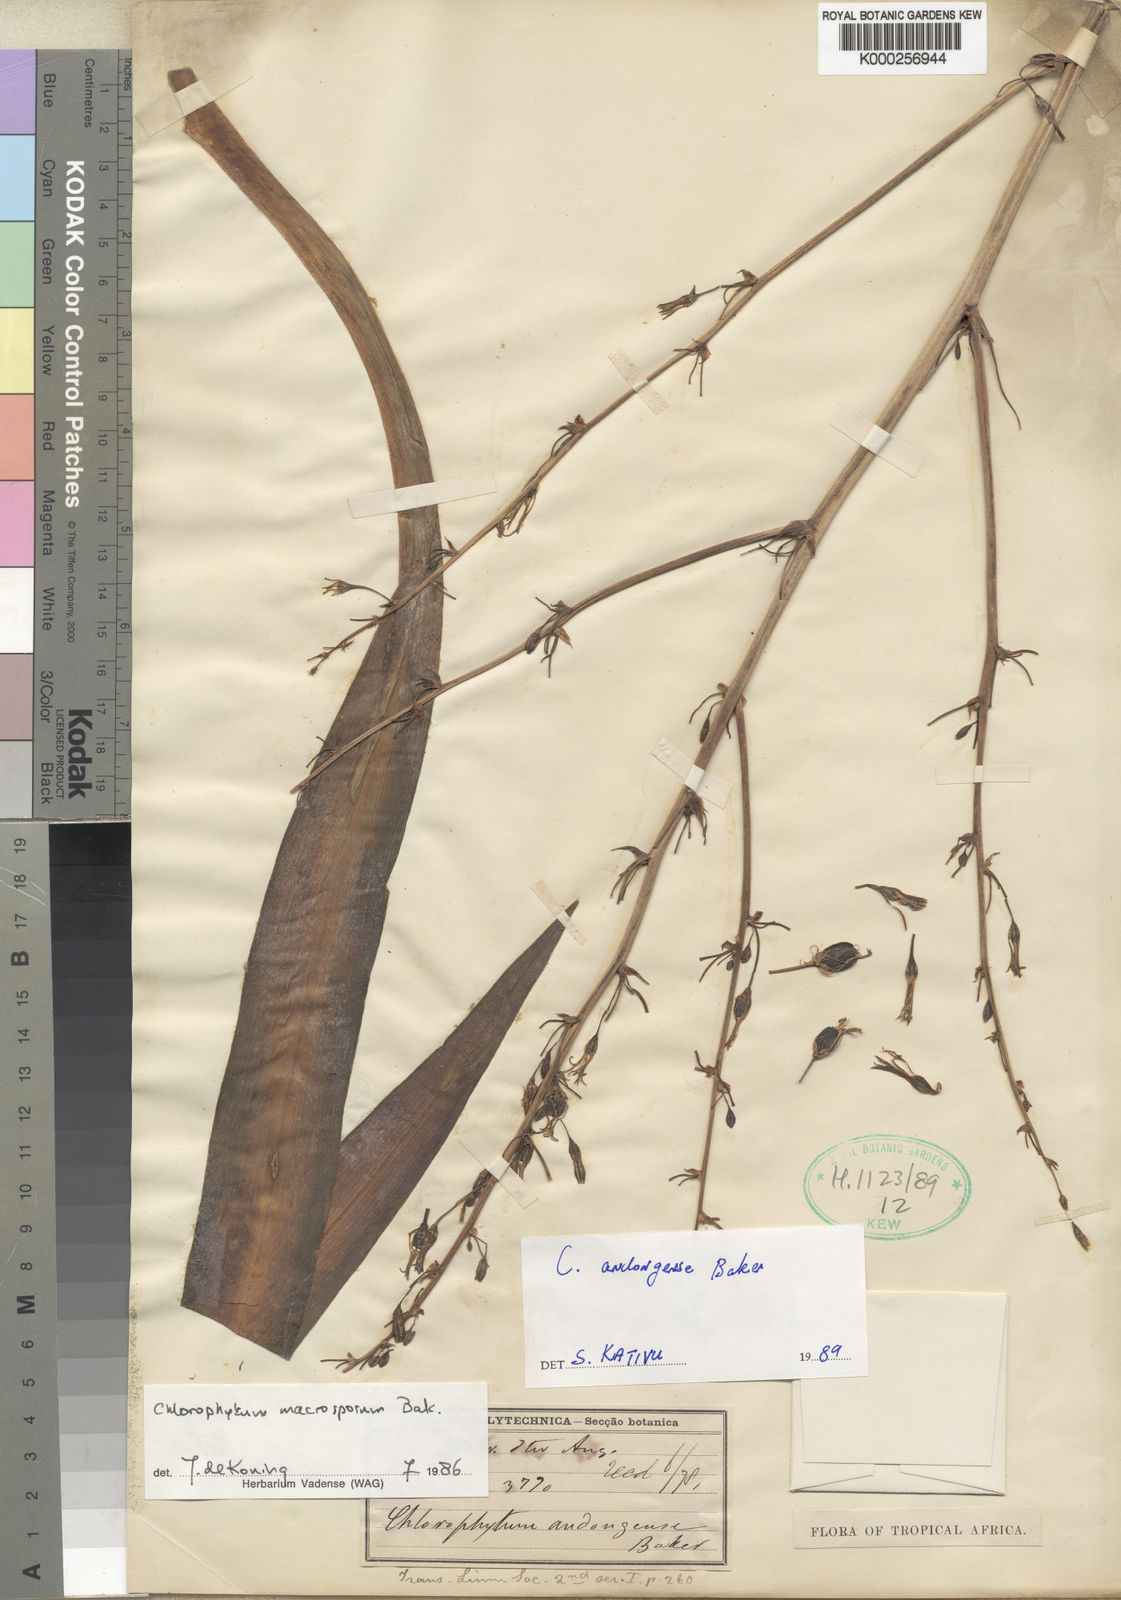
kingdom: Plantae
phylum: Tracheophyta
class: Liliopsida
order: Asparagales
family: Asparagaceae
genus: Chlorophytum
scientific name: Chlorophytum andongense
